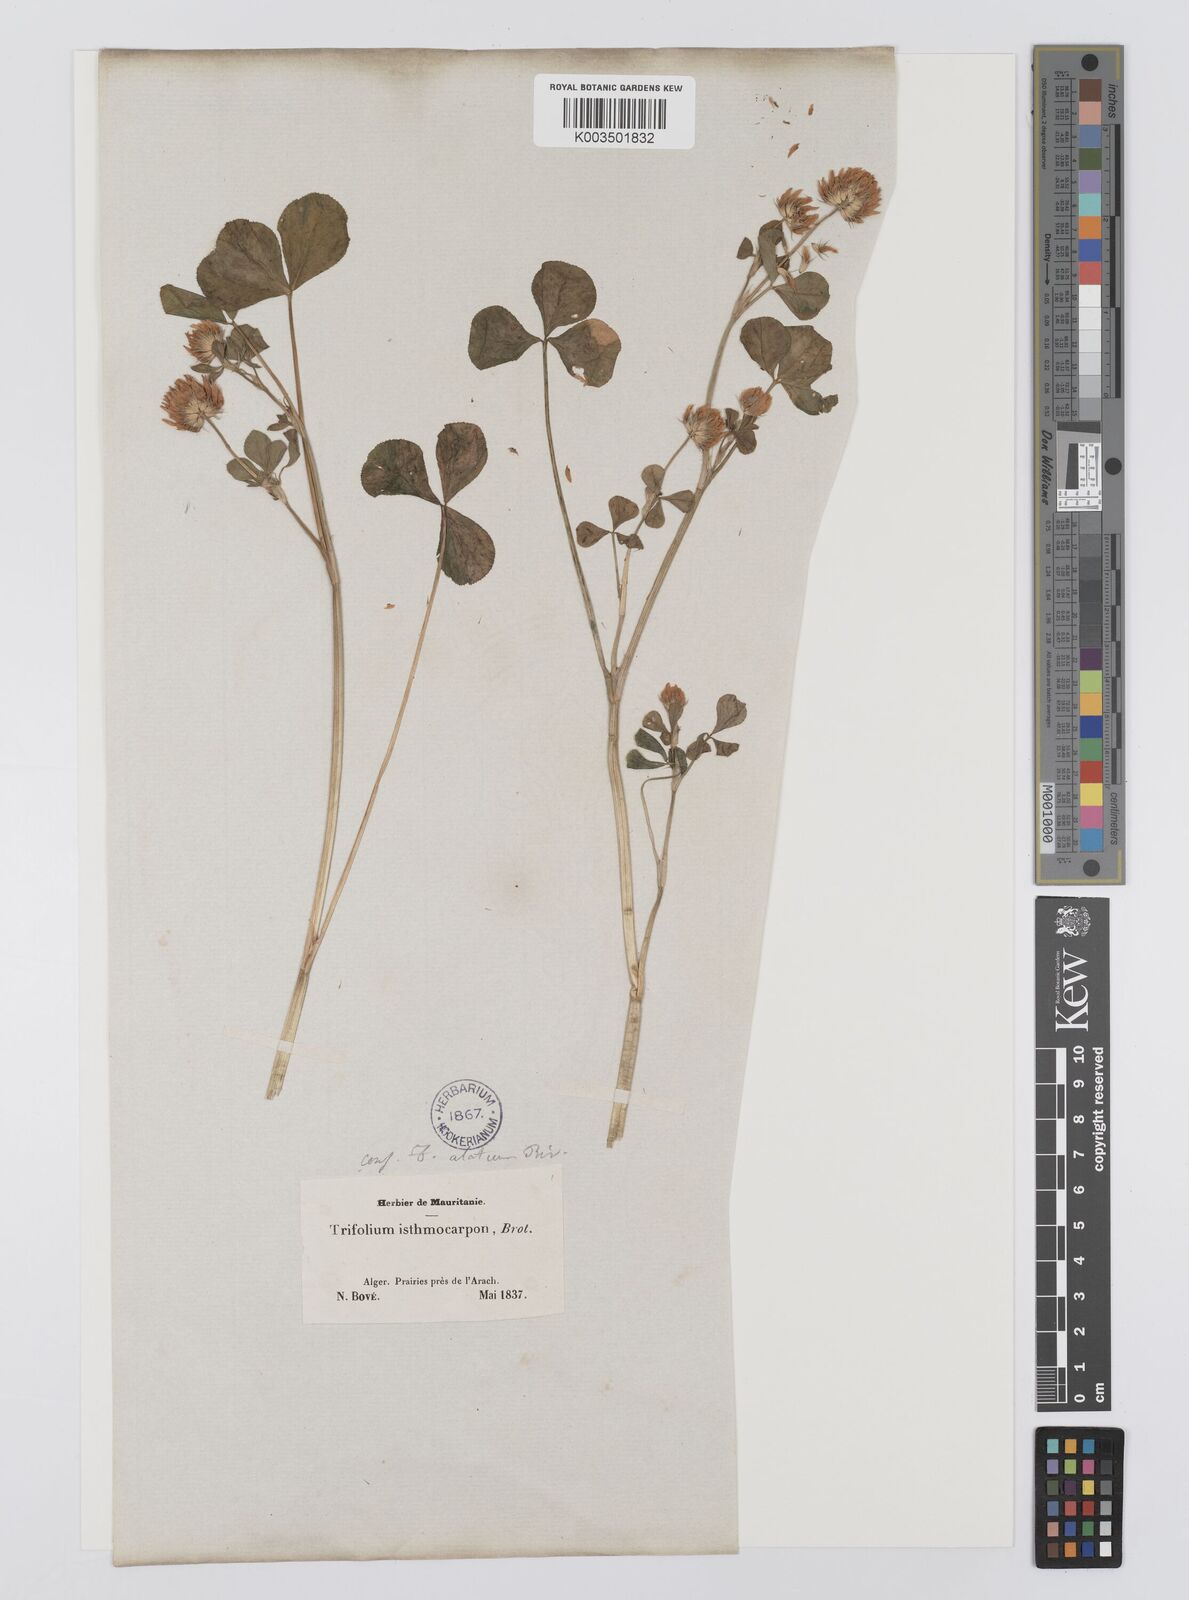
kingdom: Plantae
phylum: Tracheophyta
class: Magnoliopsida
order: Fabales
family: Fabaceae
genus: Trifolium
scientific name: Trifolium isthmocarpum
